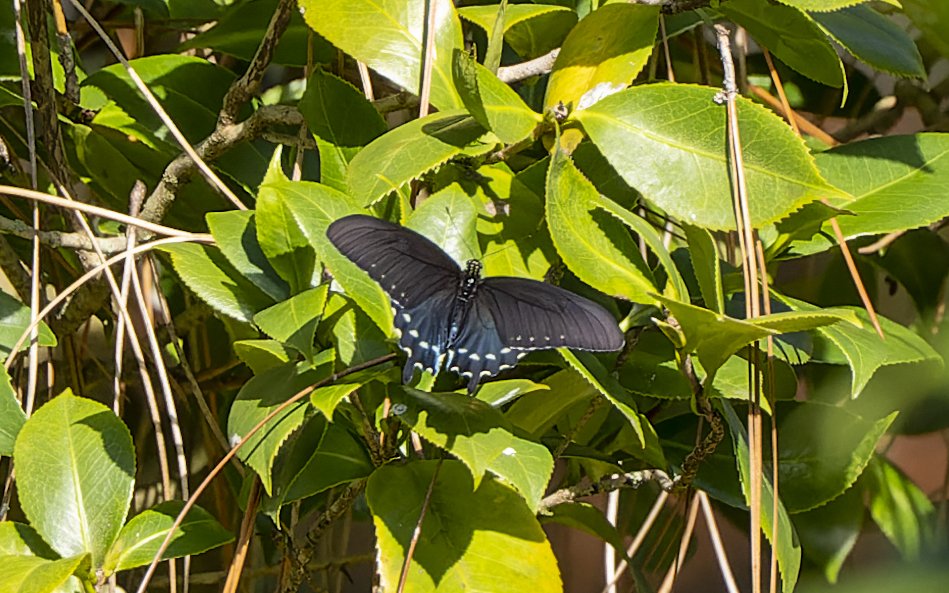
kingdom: Animalia
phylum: Arthropoda
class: Insecta
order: Lepidoptera
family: Papilionidae
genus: Battus
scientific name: Battus philenor
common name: Pipevine Swallowtail
